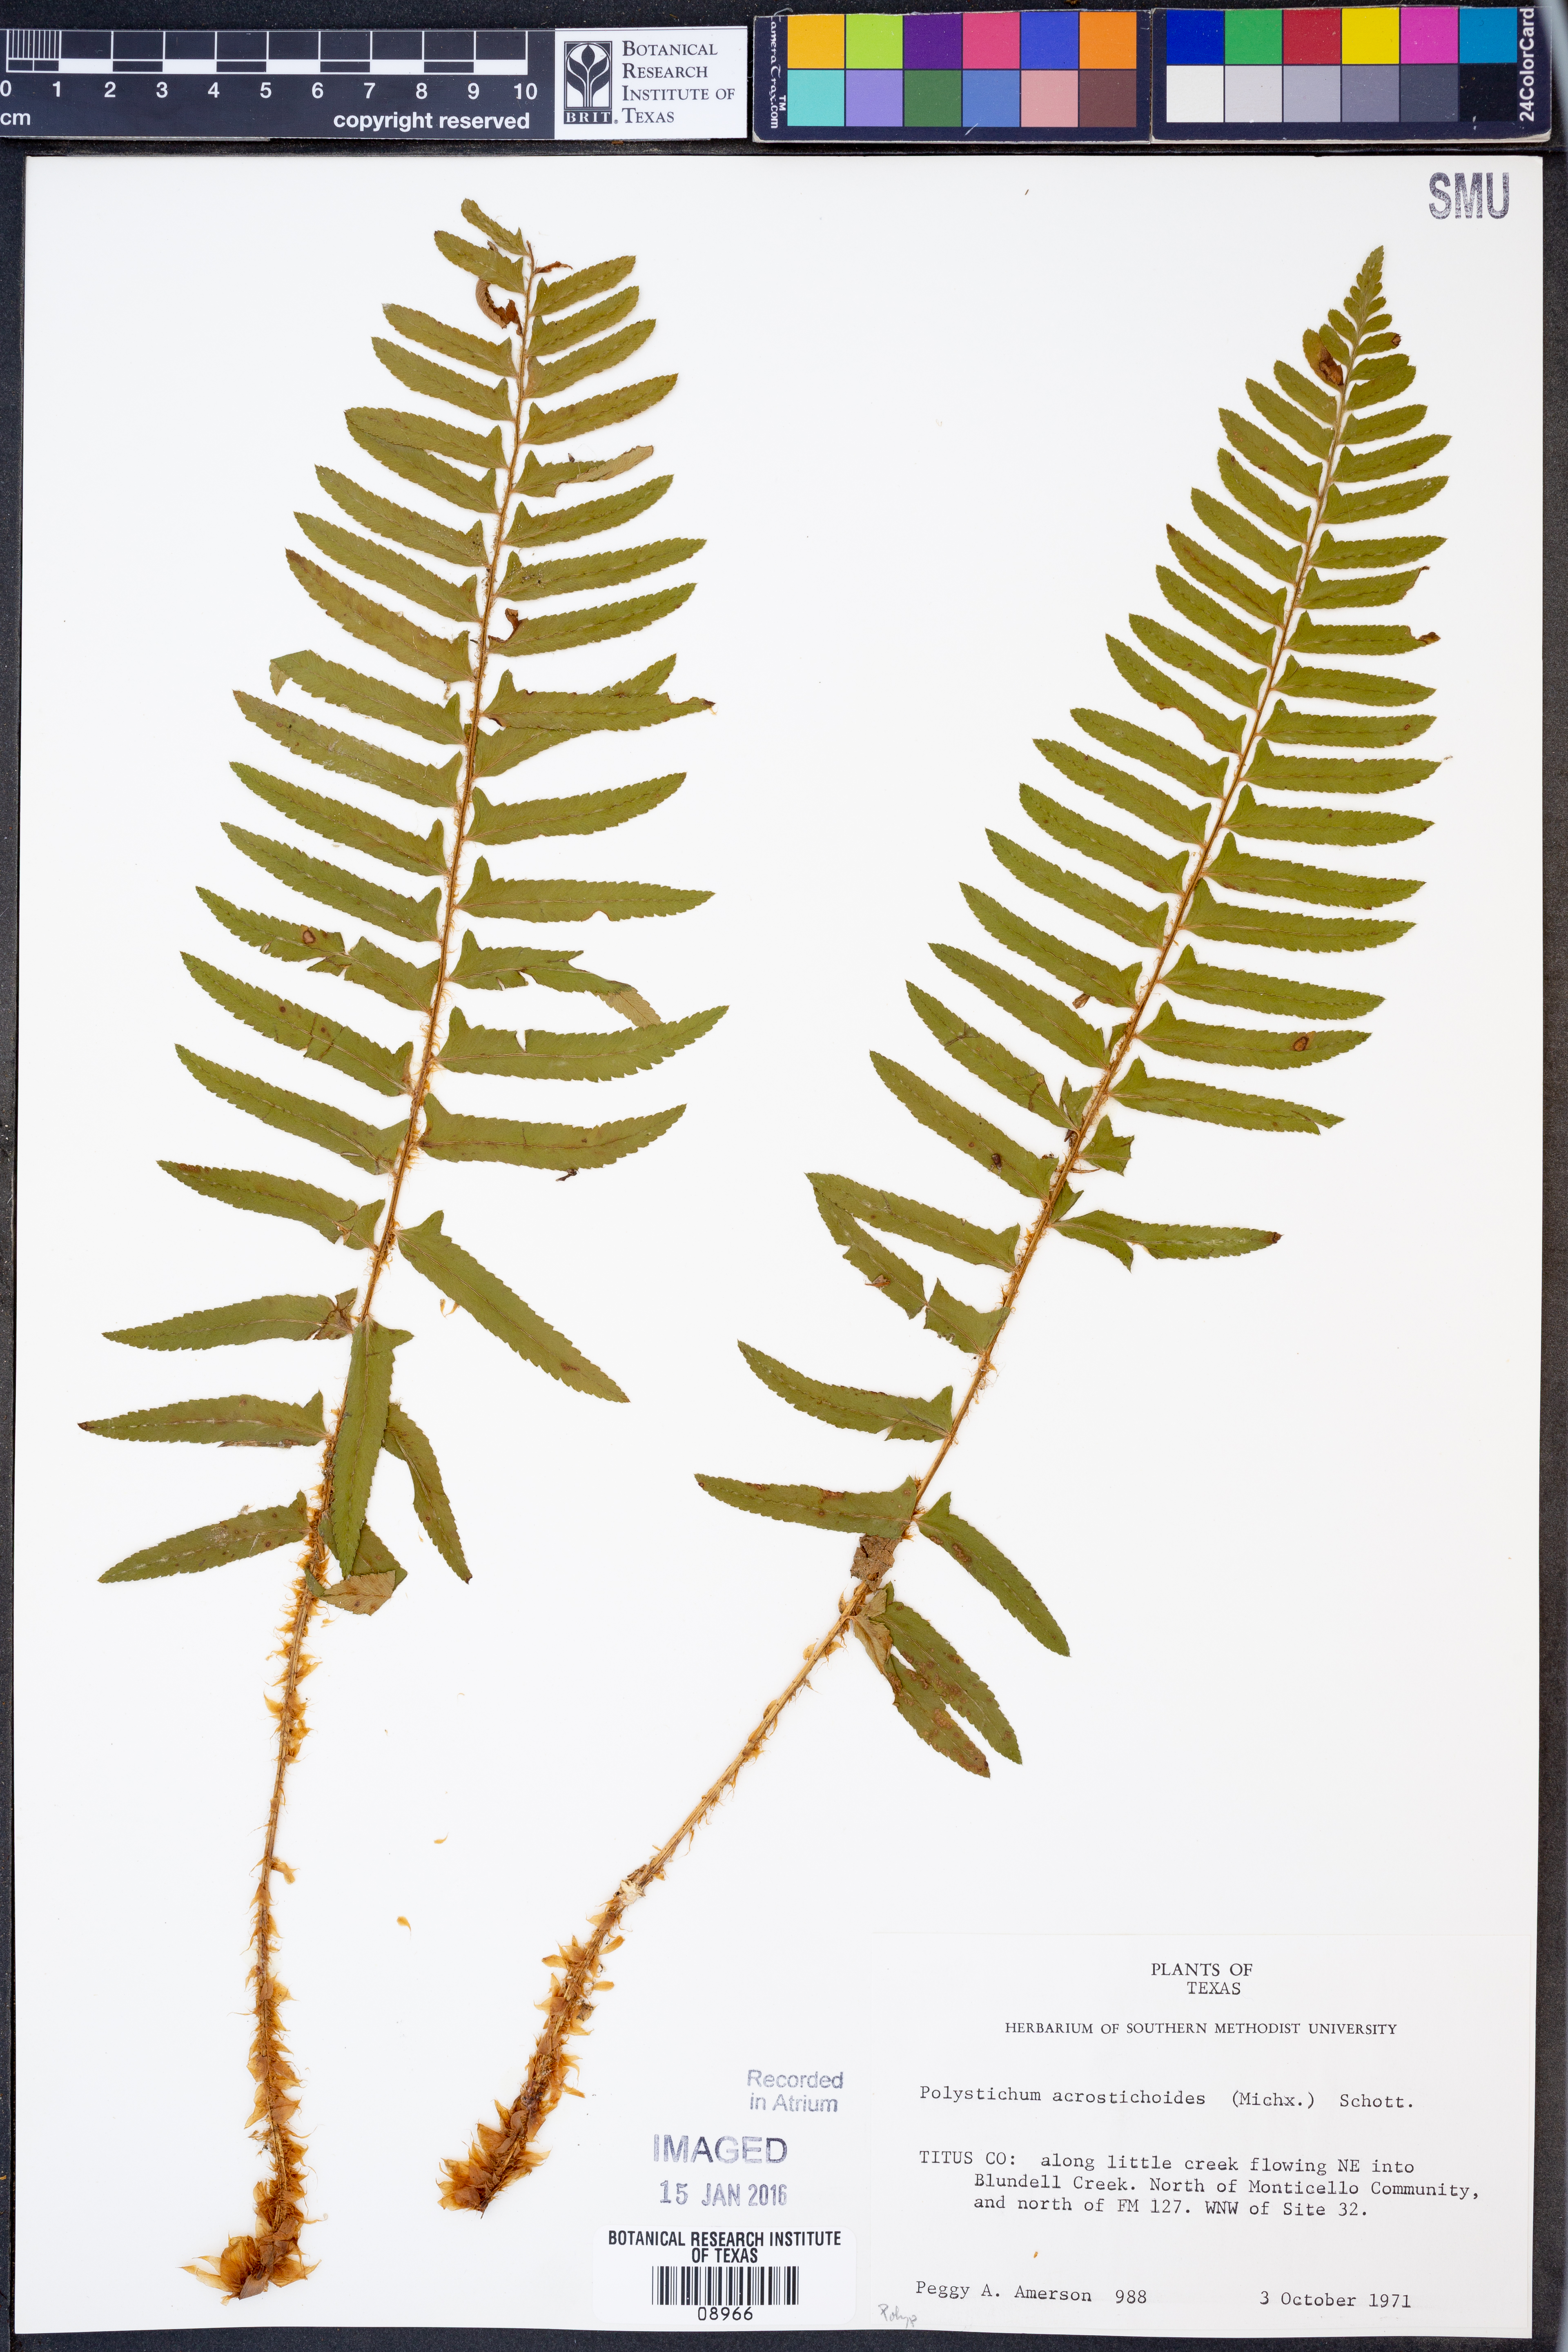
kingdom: Plantae
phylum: Tracheophyta
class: Polypodiopsida
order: Polypodiales
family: Dryopteridaceae
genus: Polystichum
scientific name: Polystichum acrostichoides
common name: Christmas fern
